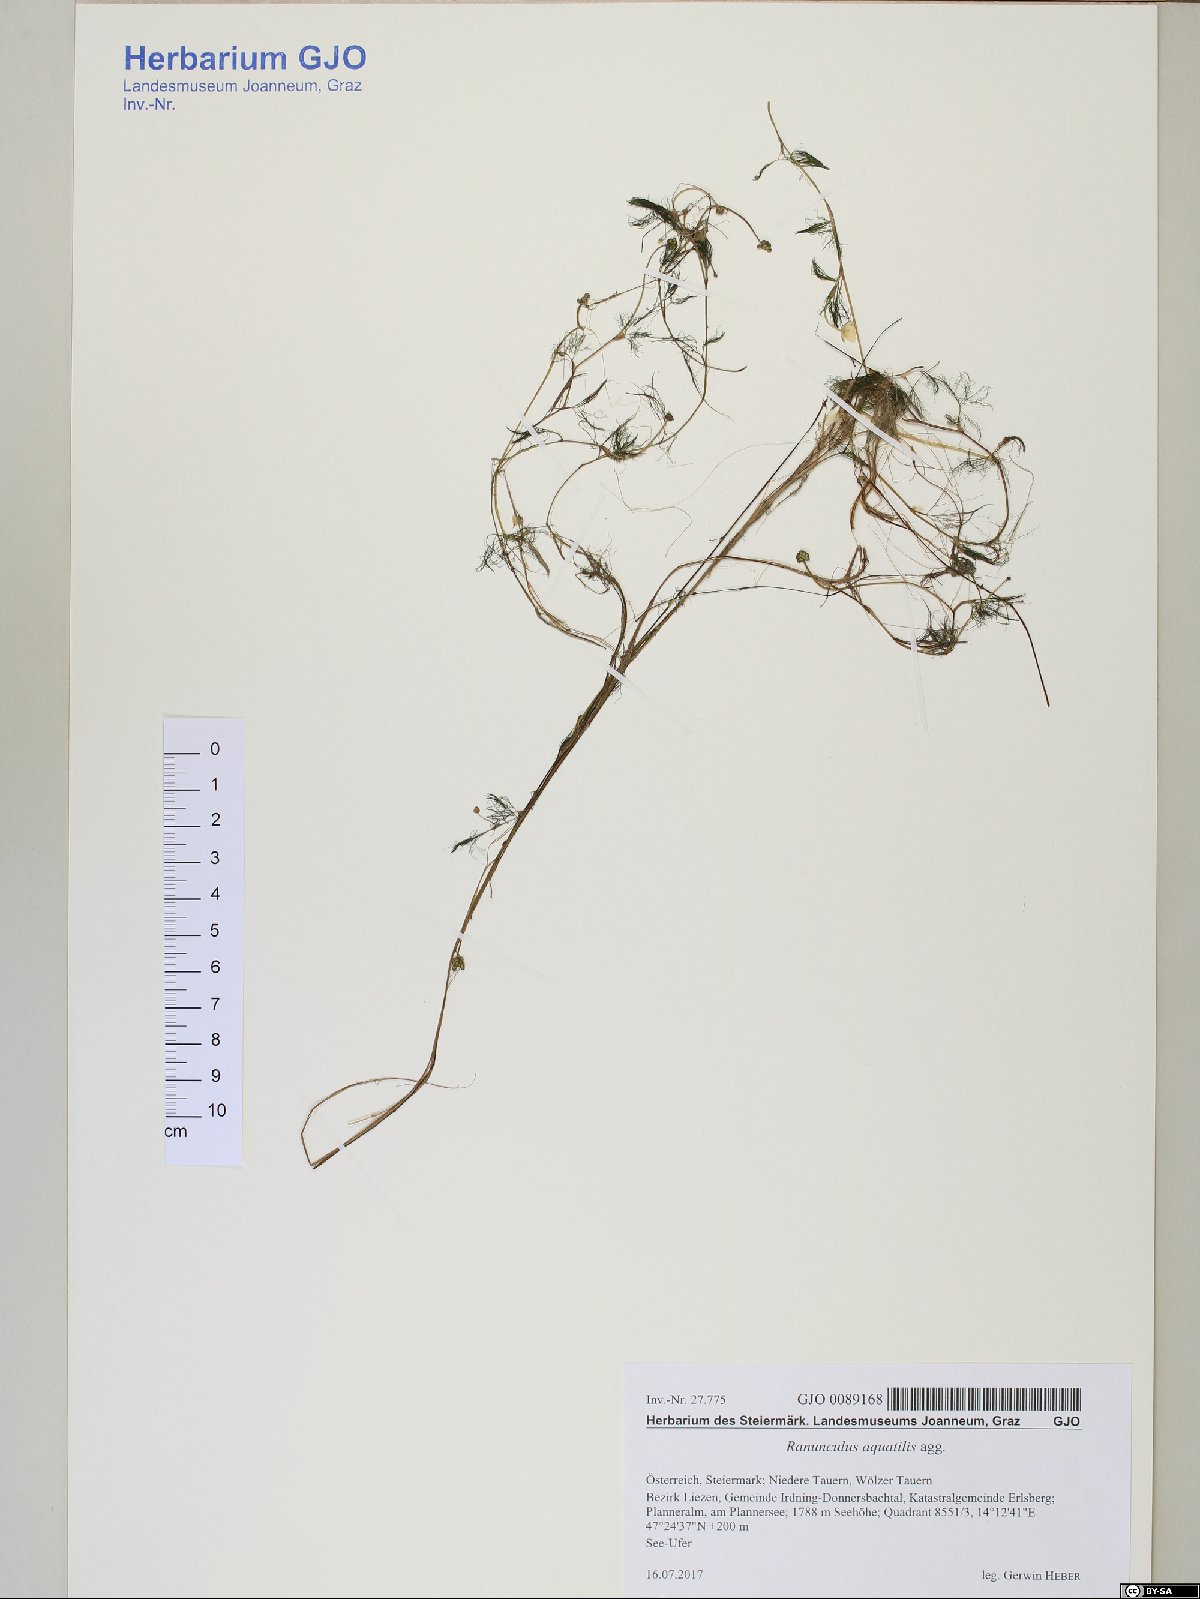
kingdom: Plantae
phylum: Tracheophyta
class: Magnoliopsida
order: Ranunculales
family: Ranunculaceae
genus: Ranunculus
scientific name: Ranunculus trichophyllus
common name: Thread-leaved water-crowfoot
